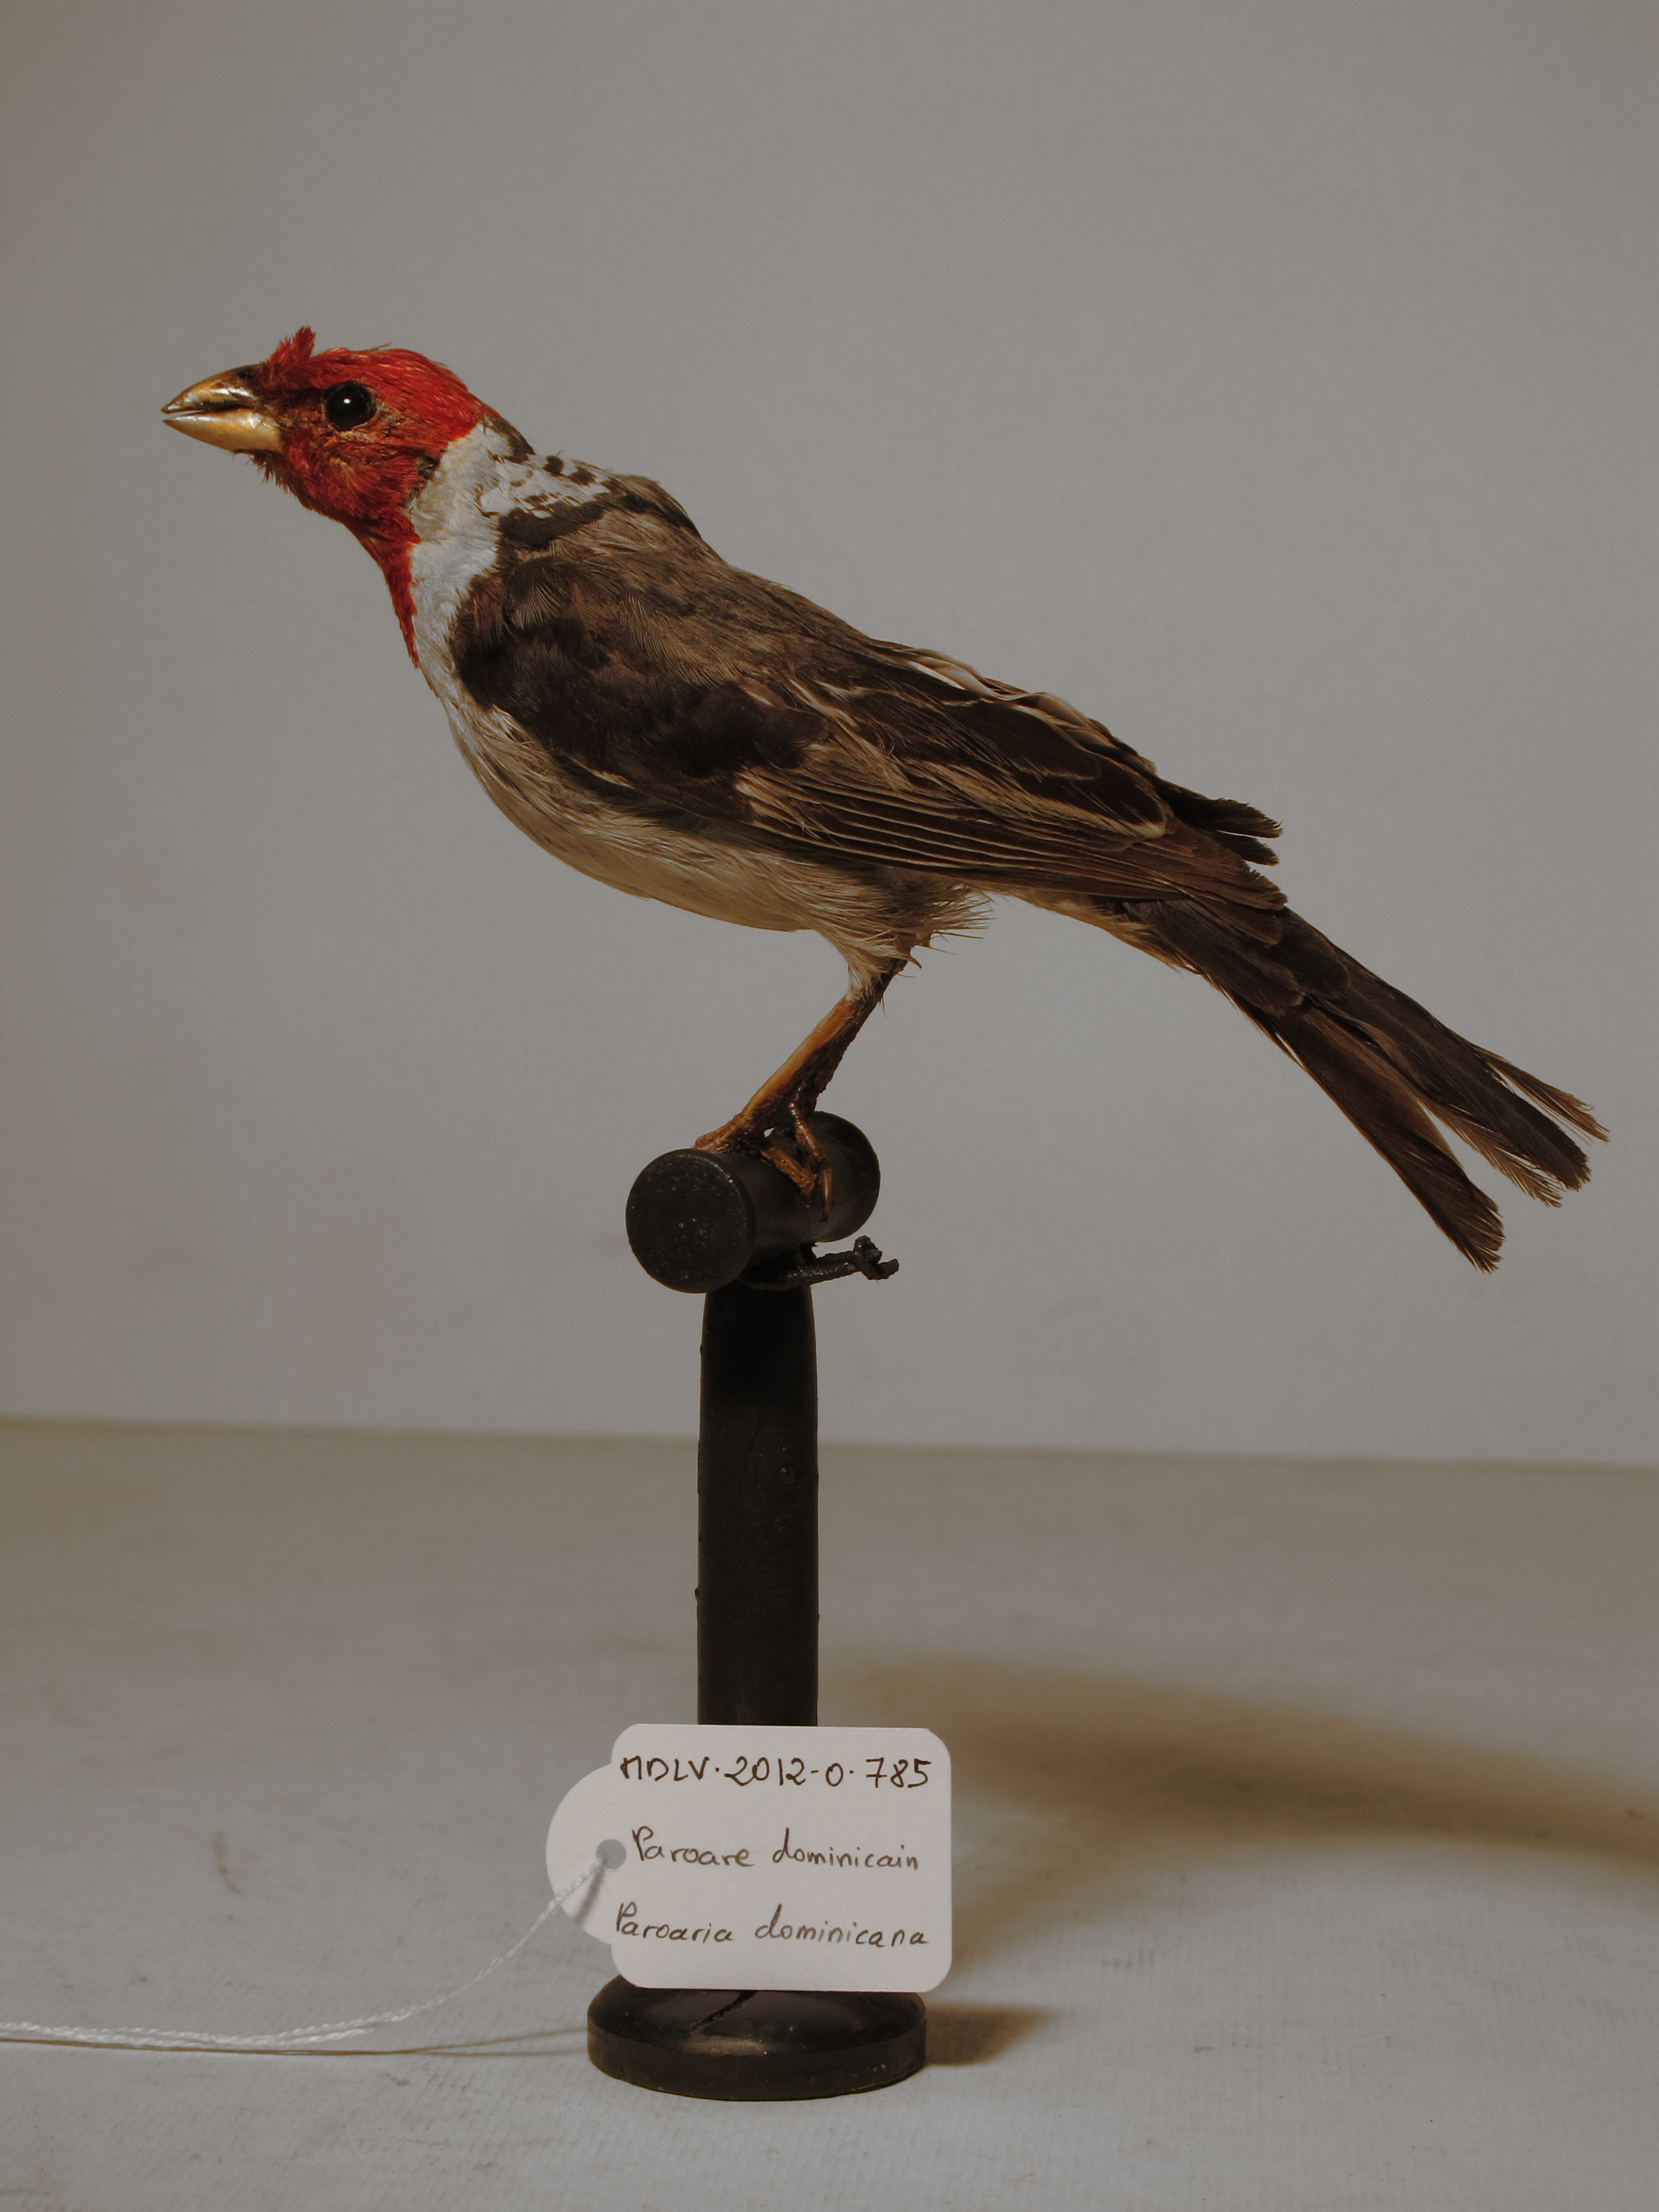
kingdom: Animalia
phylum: Chordata
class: Aves
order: Passeriformes
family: Thraupidae
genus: Paroaria
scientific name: Paroaria dominicana
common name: Red-cowled Cardinal
